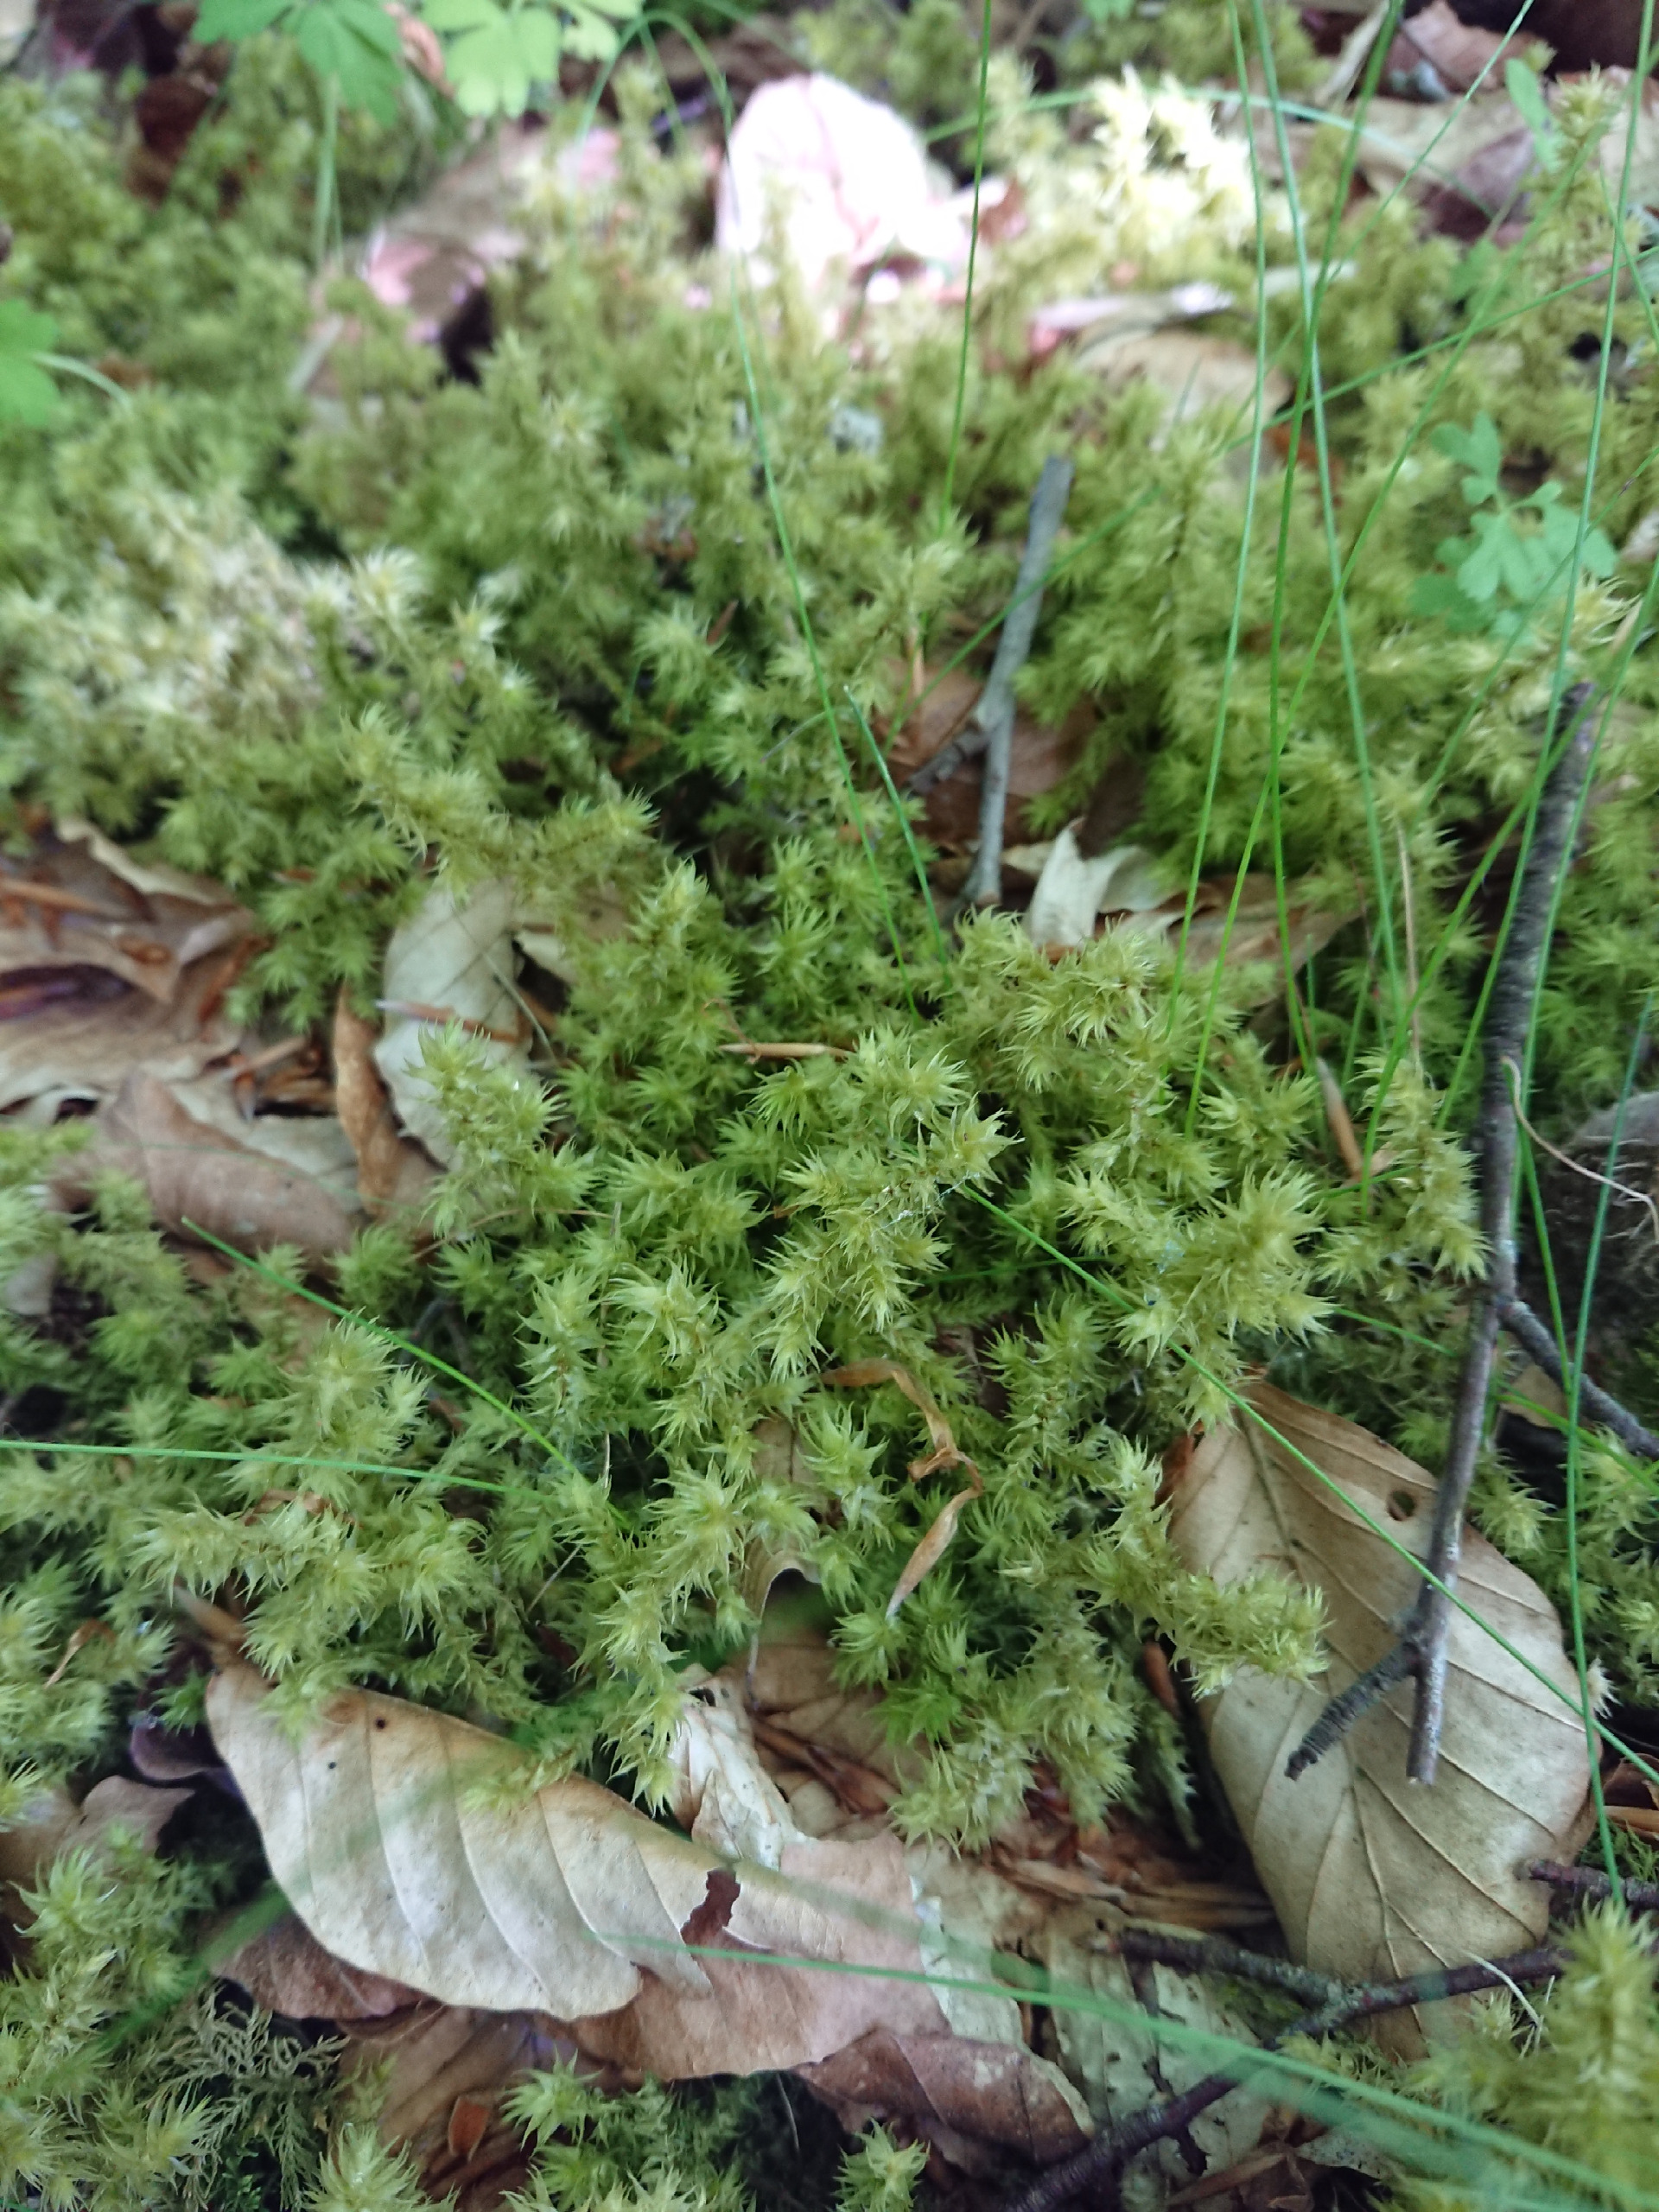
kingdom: Plantae
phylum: Bryophyta
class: Bryopsida
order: Hypnales
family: Hylocomiaceae
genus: Hylocomiadelphus
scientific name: Hylocomiadelphus triquetrus
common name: Stor kransemos
